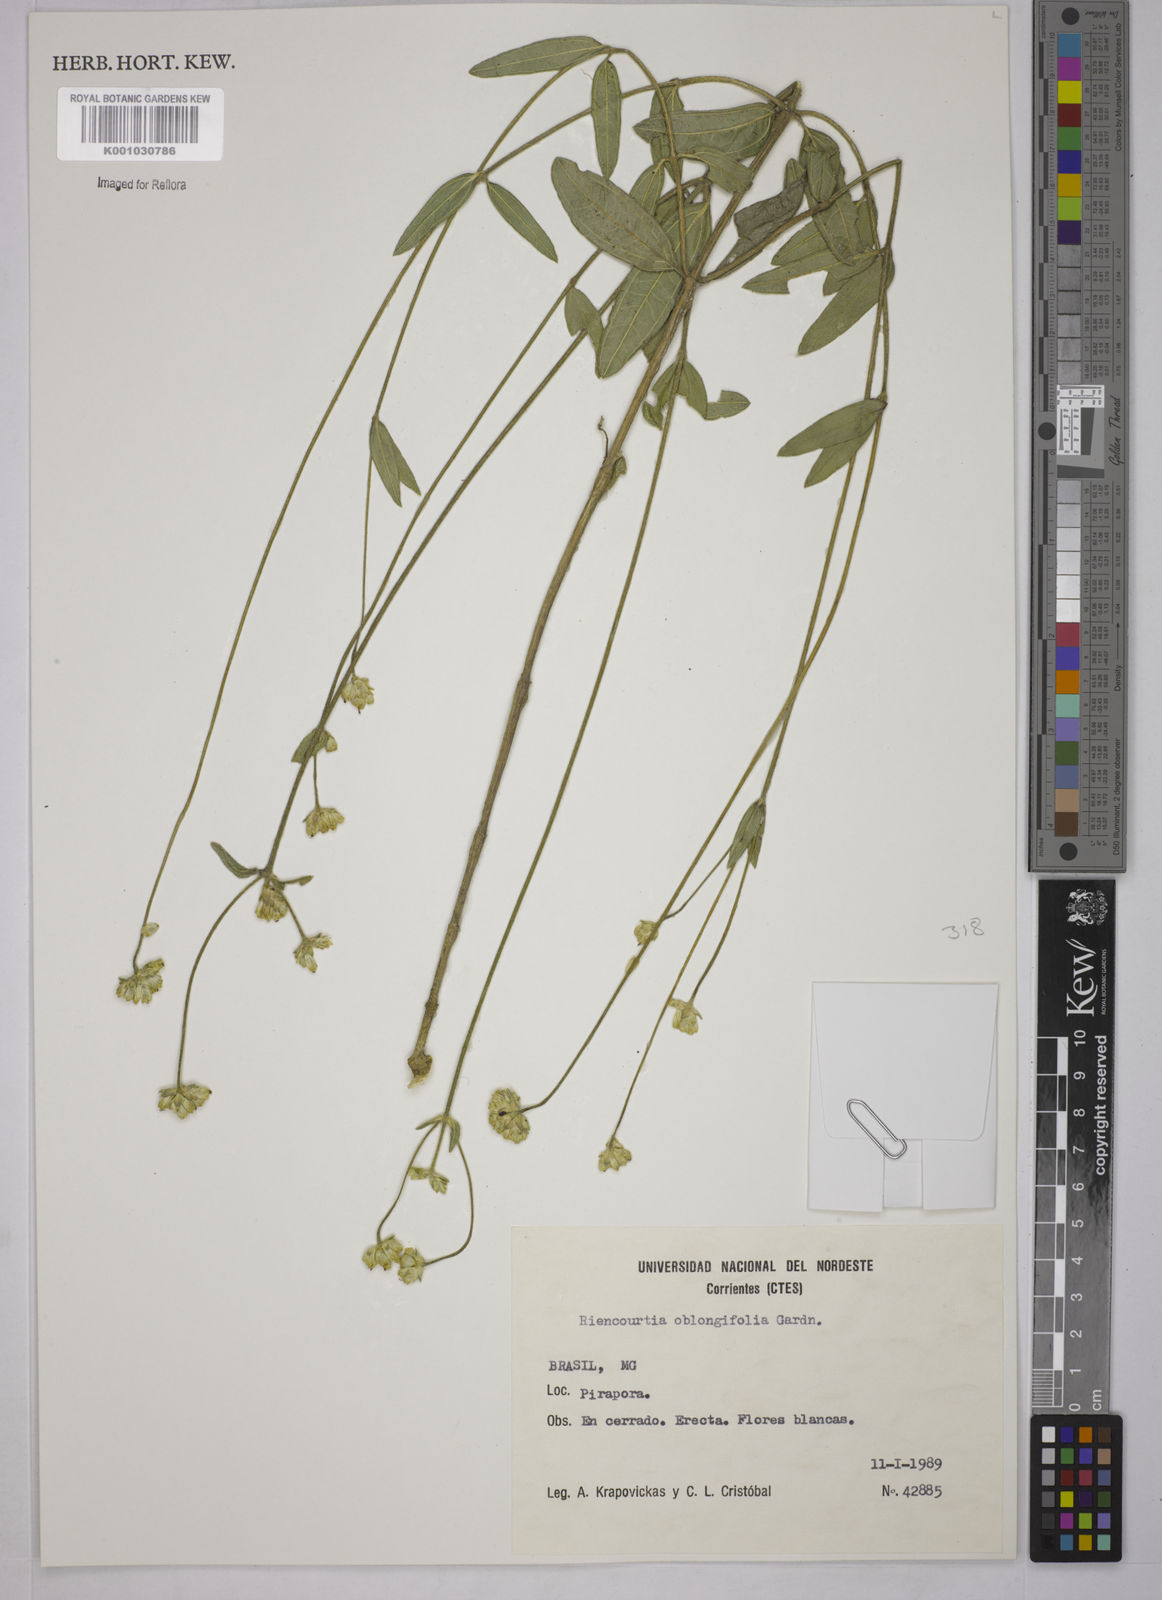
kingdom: Plantae
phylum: Tracheophyta
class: Magnoliopsida
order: Asterales
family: Asteraceae
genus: Riencourtia
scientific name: Riencourtia oblongifolia
